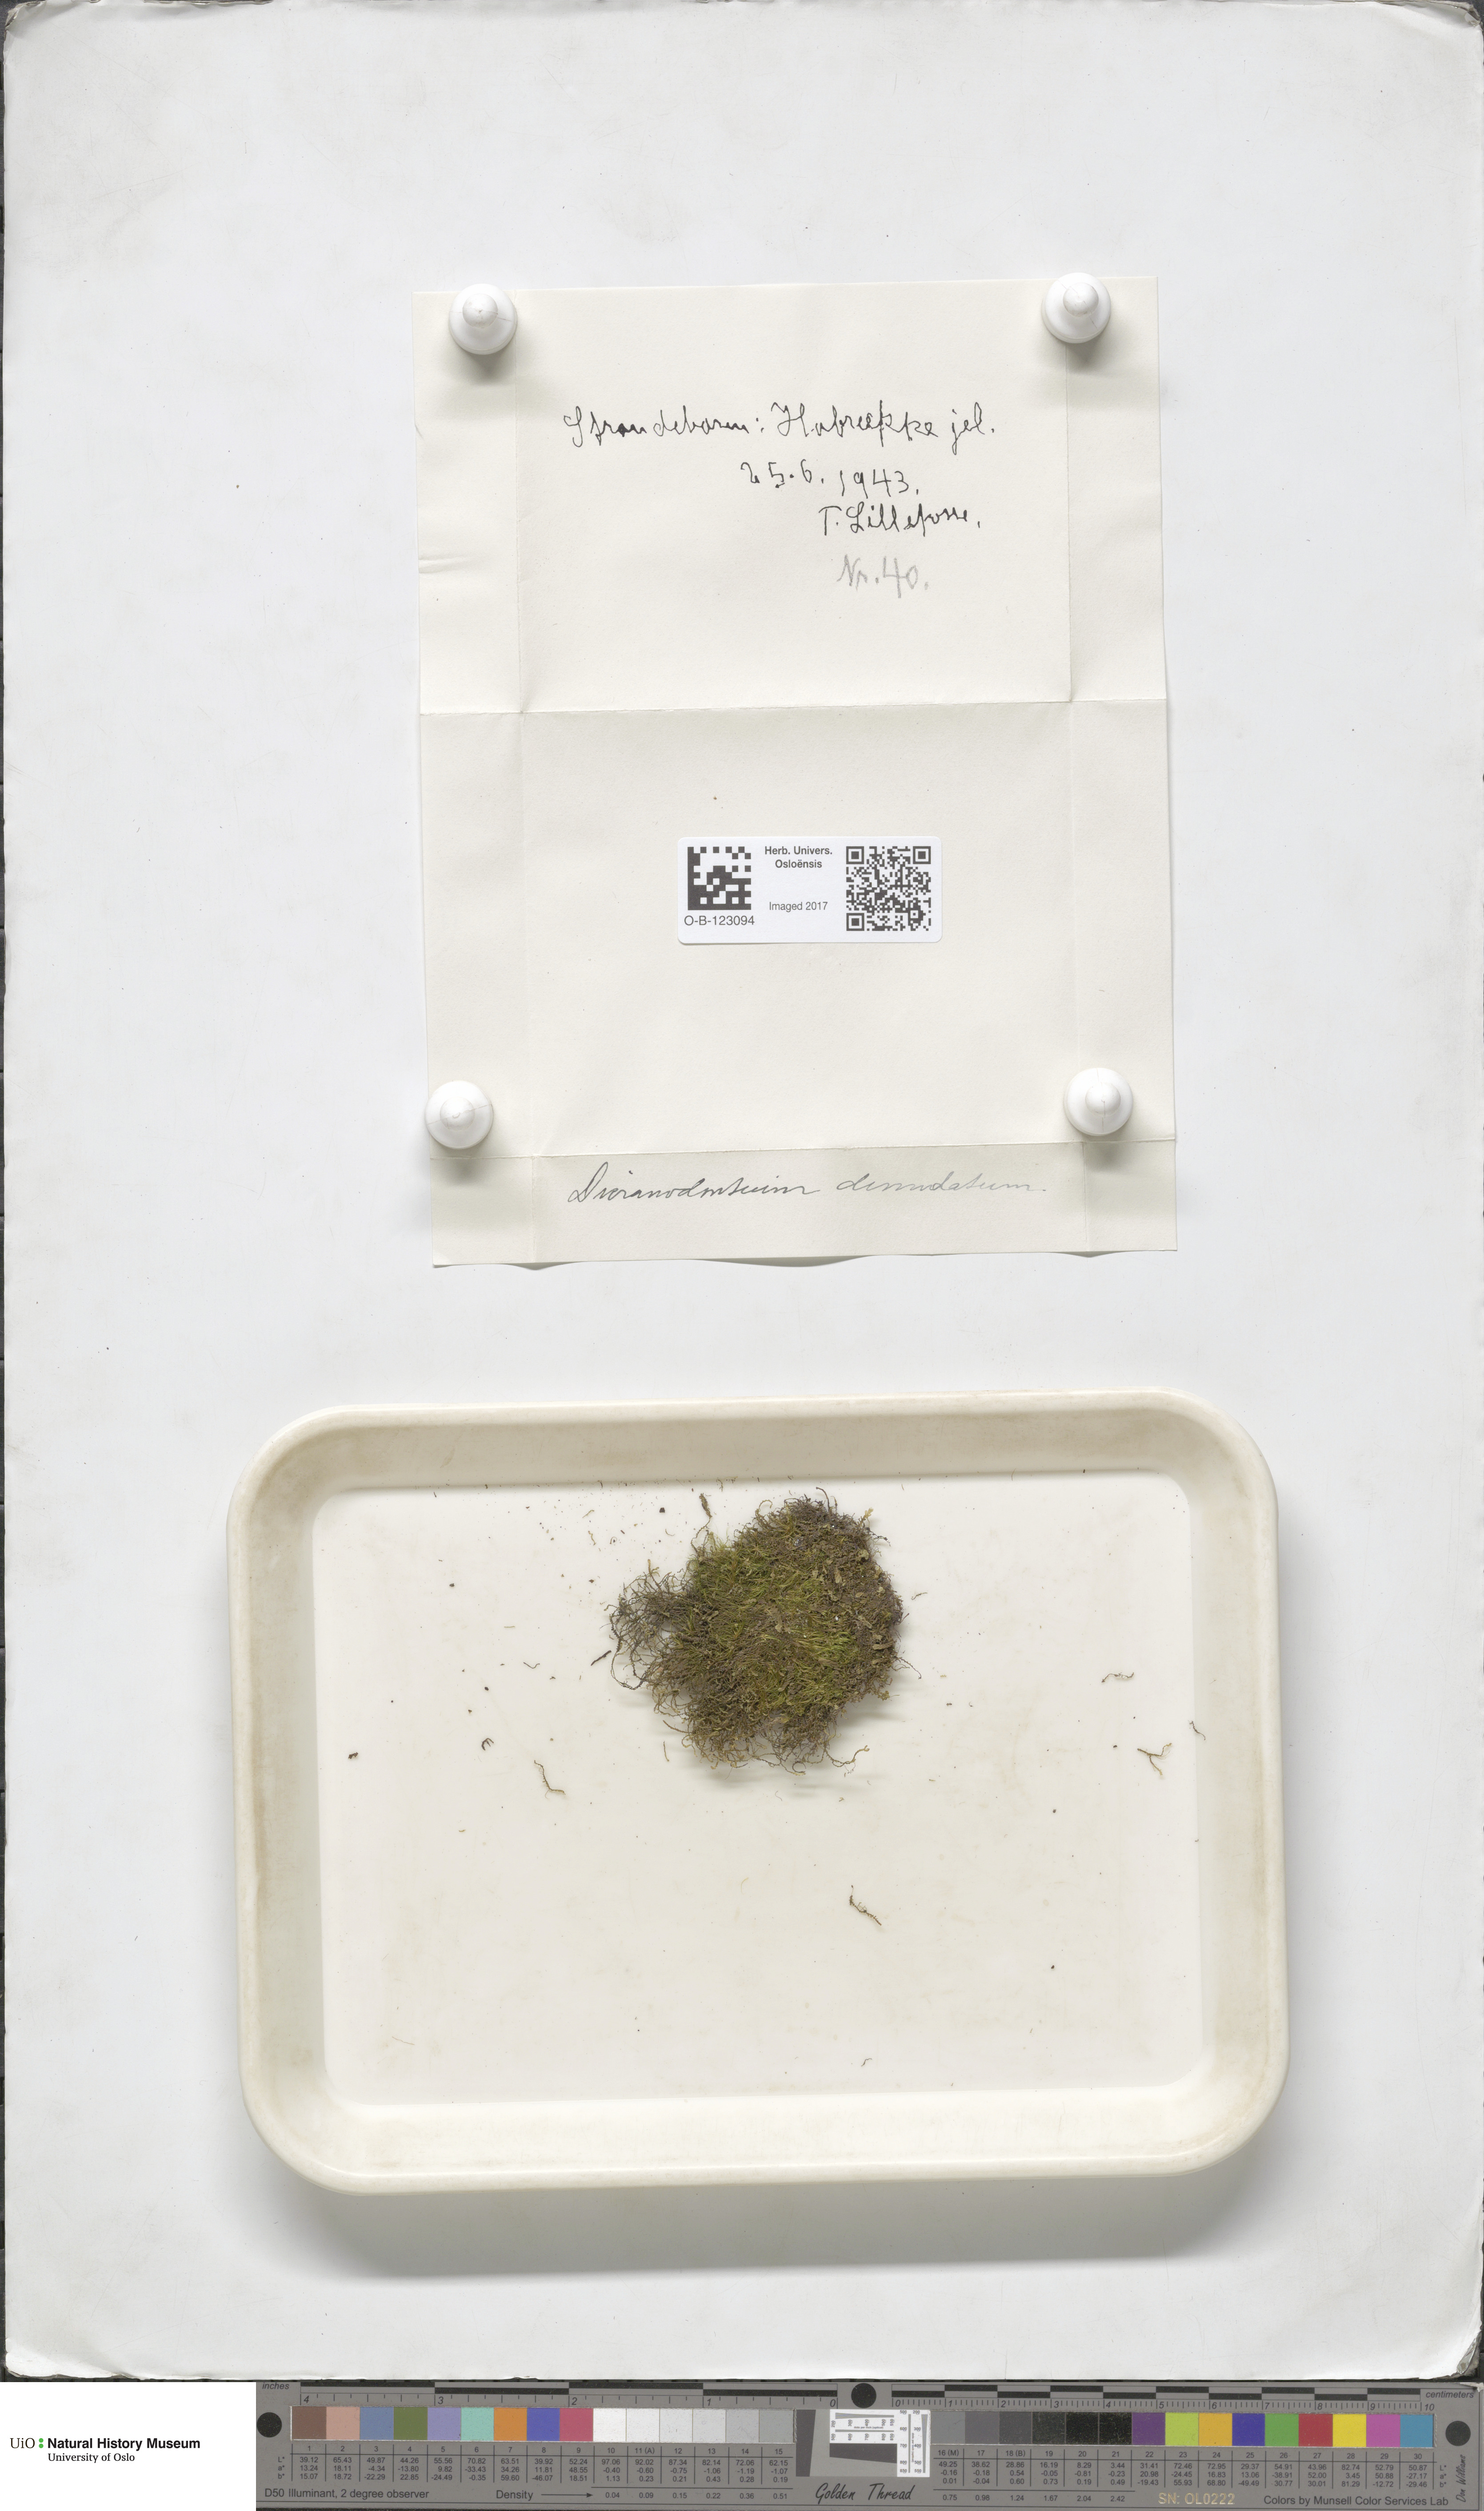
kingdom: Plantae
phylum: Bryophyta
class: Bryopsida
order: Dicranales
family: Leucobryaceae
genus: Dicranodontium
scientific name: Dicranodontium denudatum
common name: Beaked bow moss
